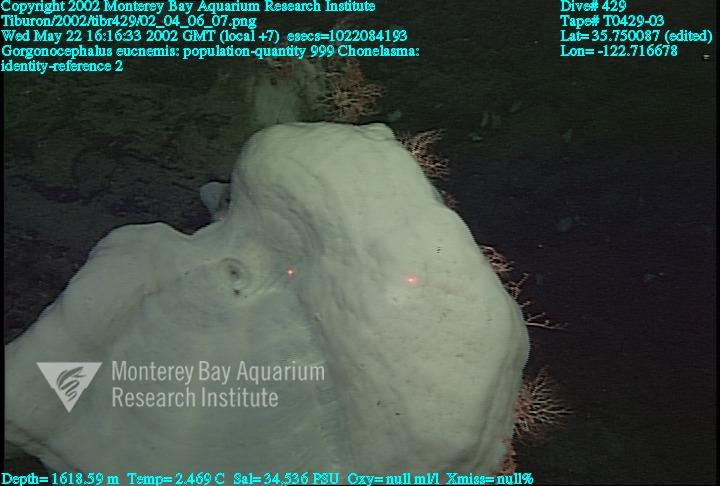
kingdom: Animalia
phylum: Porifera
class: Hexactinellida
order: Sceptrulophora
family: Euretidae
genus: Chonelasma
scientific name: Chonelasma
